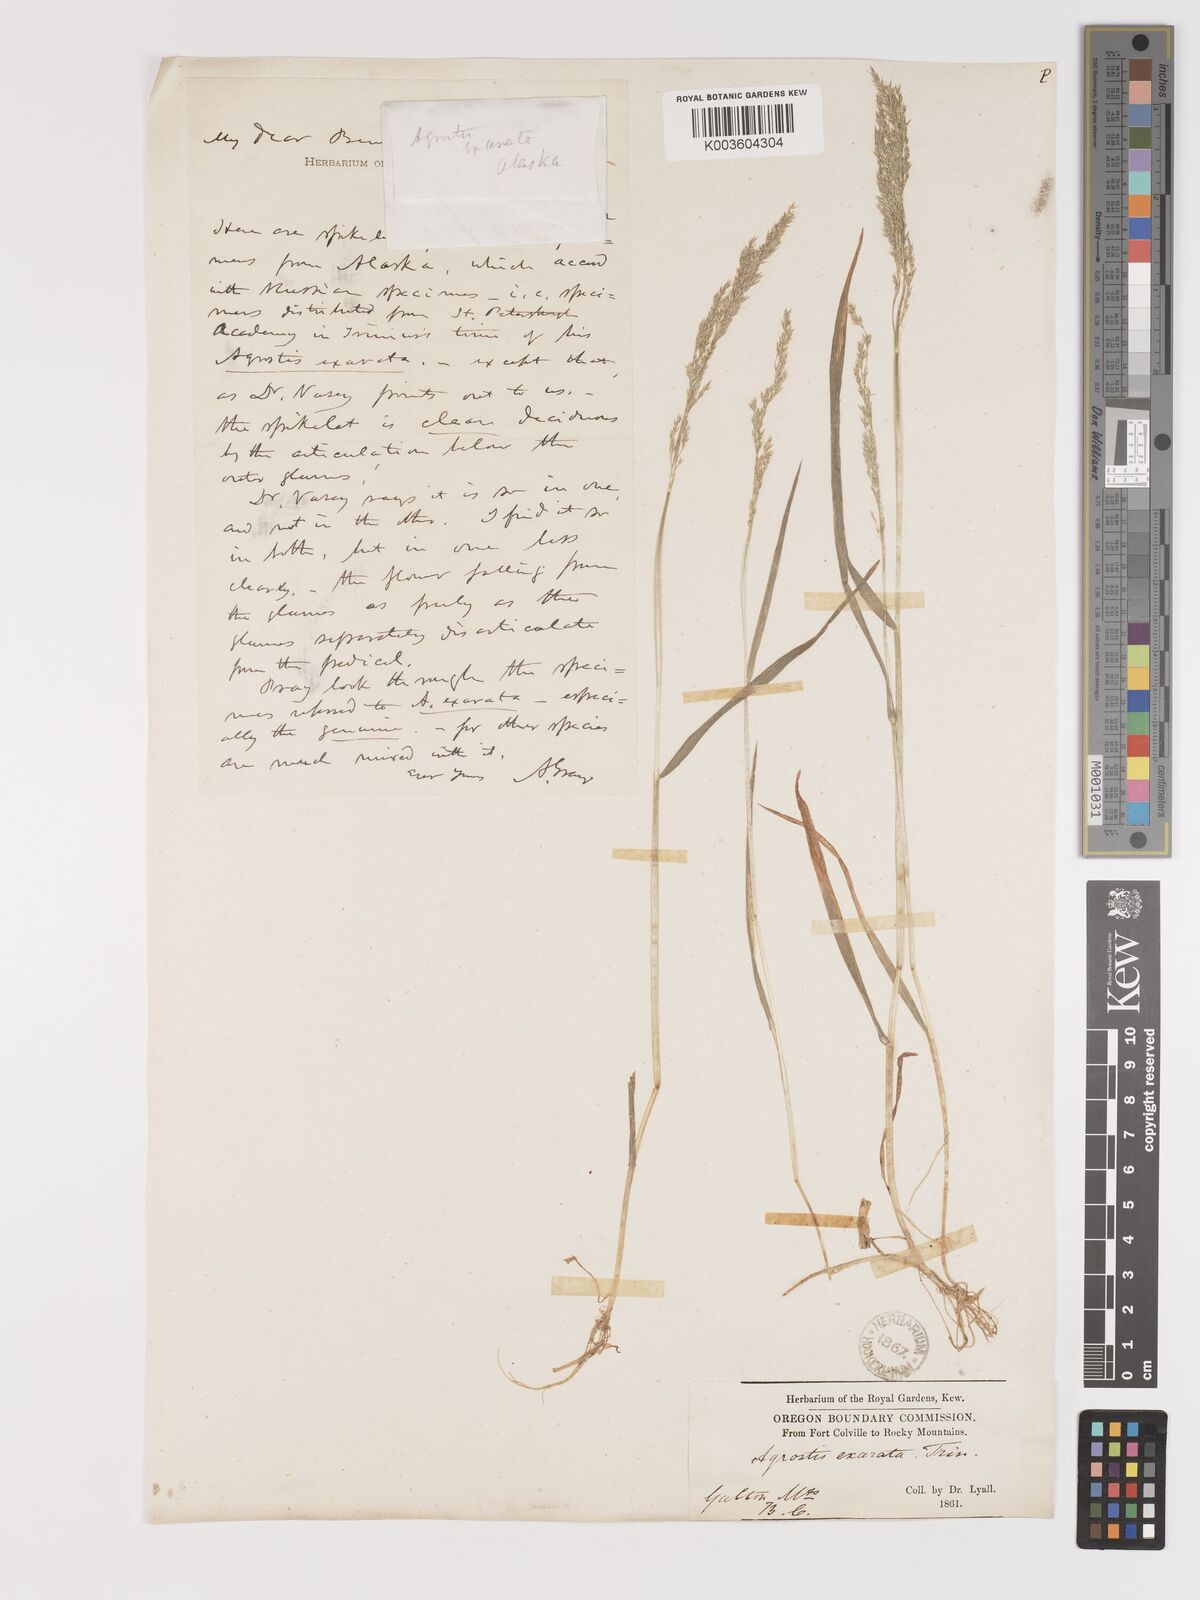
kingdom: Plantae
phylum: Tracheophyta
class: Liliopsida
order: Poales
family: Poaceae
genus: Agrostis
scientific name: Agrostis exarata
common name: Spike bent
